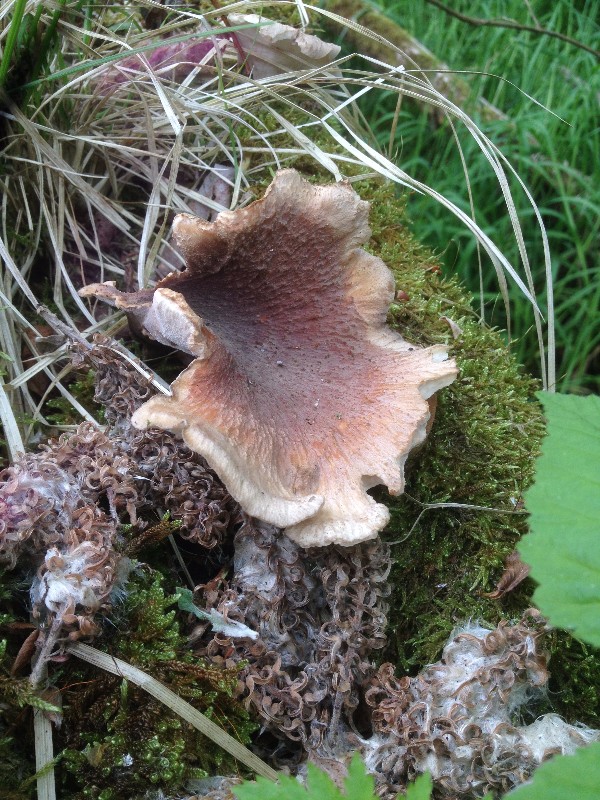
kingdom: Fungi
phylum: Basidiomycota
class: Agaricomycetes
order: Polyporales
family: Polyporaceae
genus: Picipes
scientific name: Picipes tubaeformis
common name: trompet-stilkporesvamp
